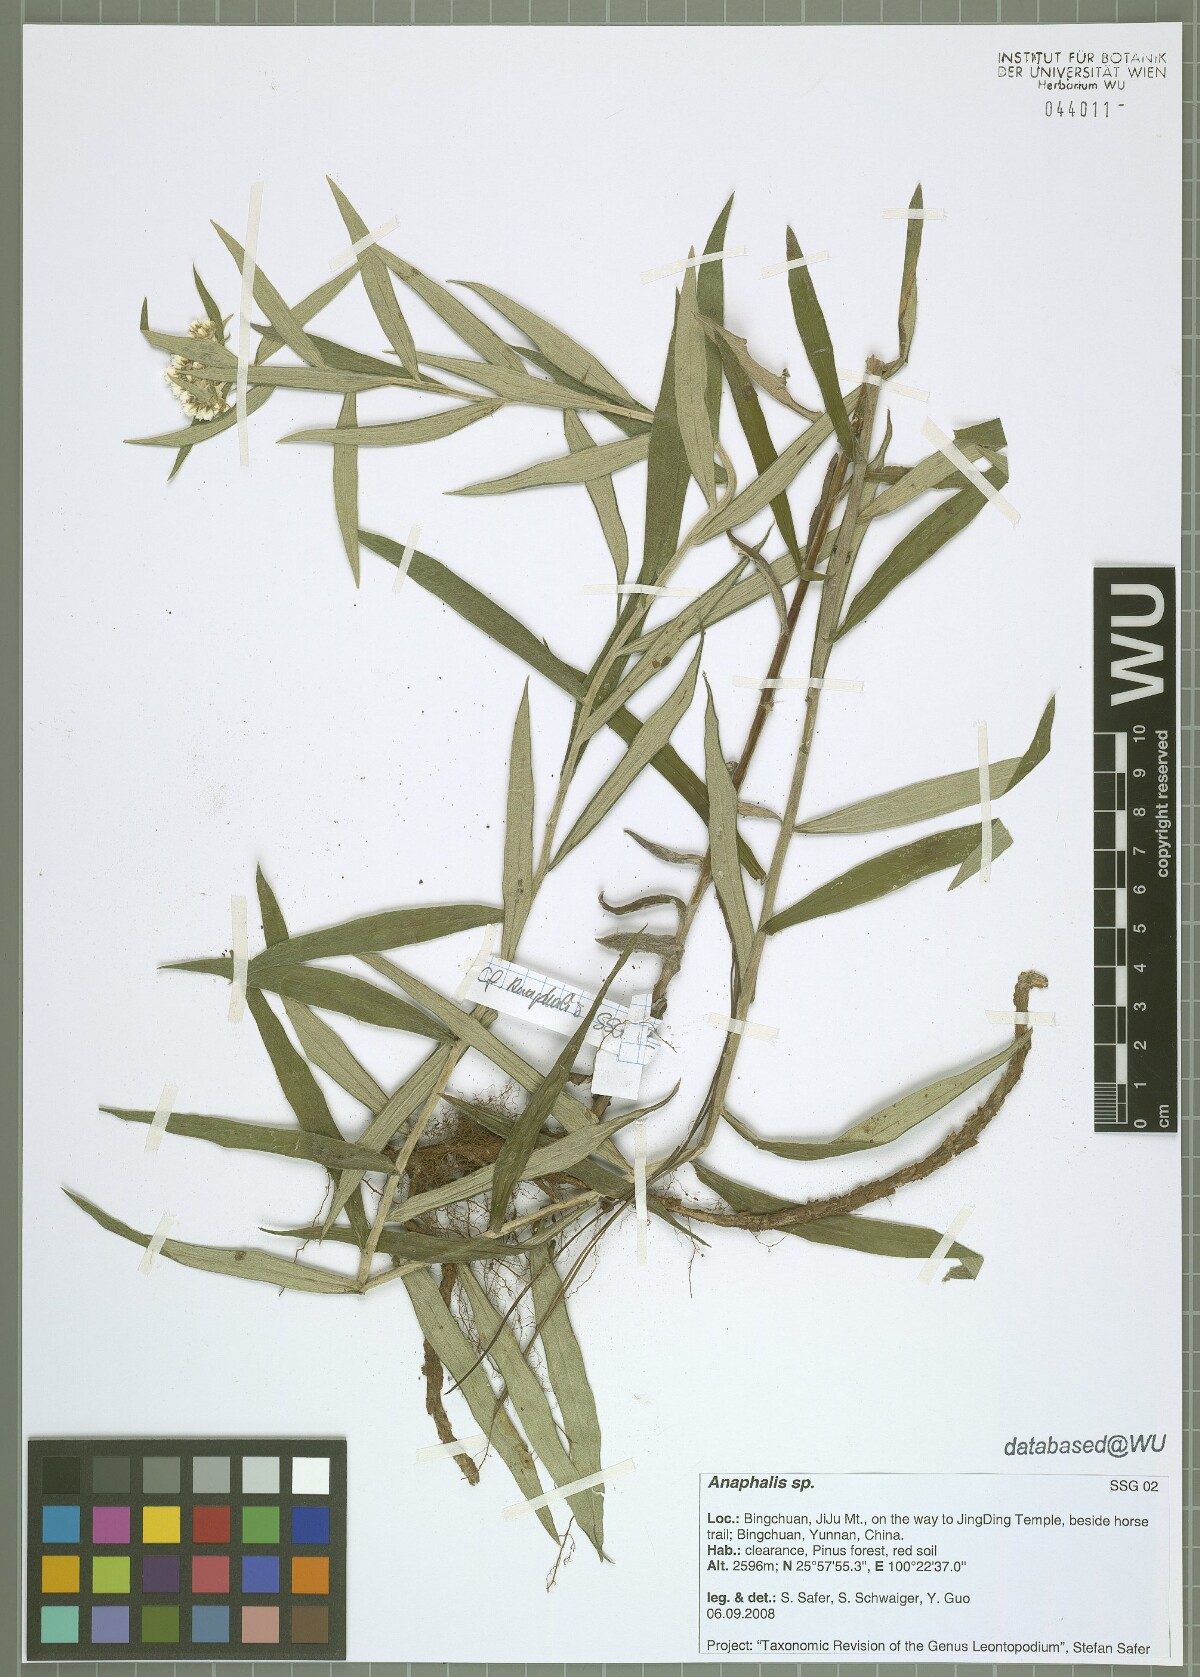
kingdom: Plantae
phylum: Tracheophyta
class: Magnoliopsida
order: Asterales
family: Asteraceae
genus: Anaphalis
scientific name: Anaphalis
